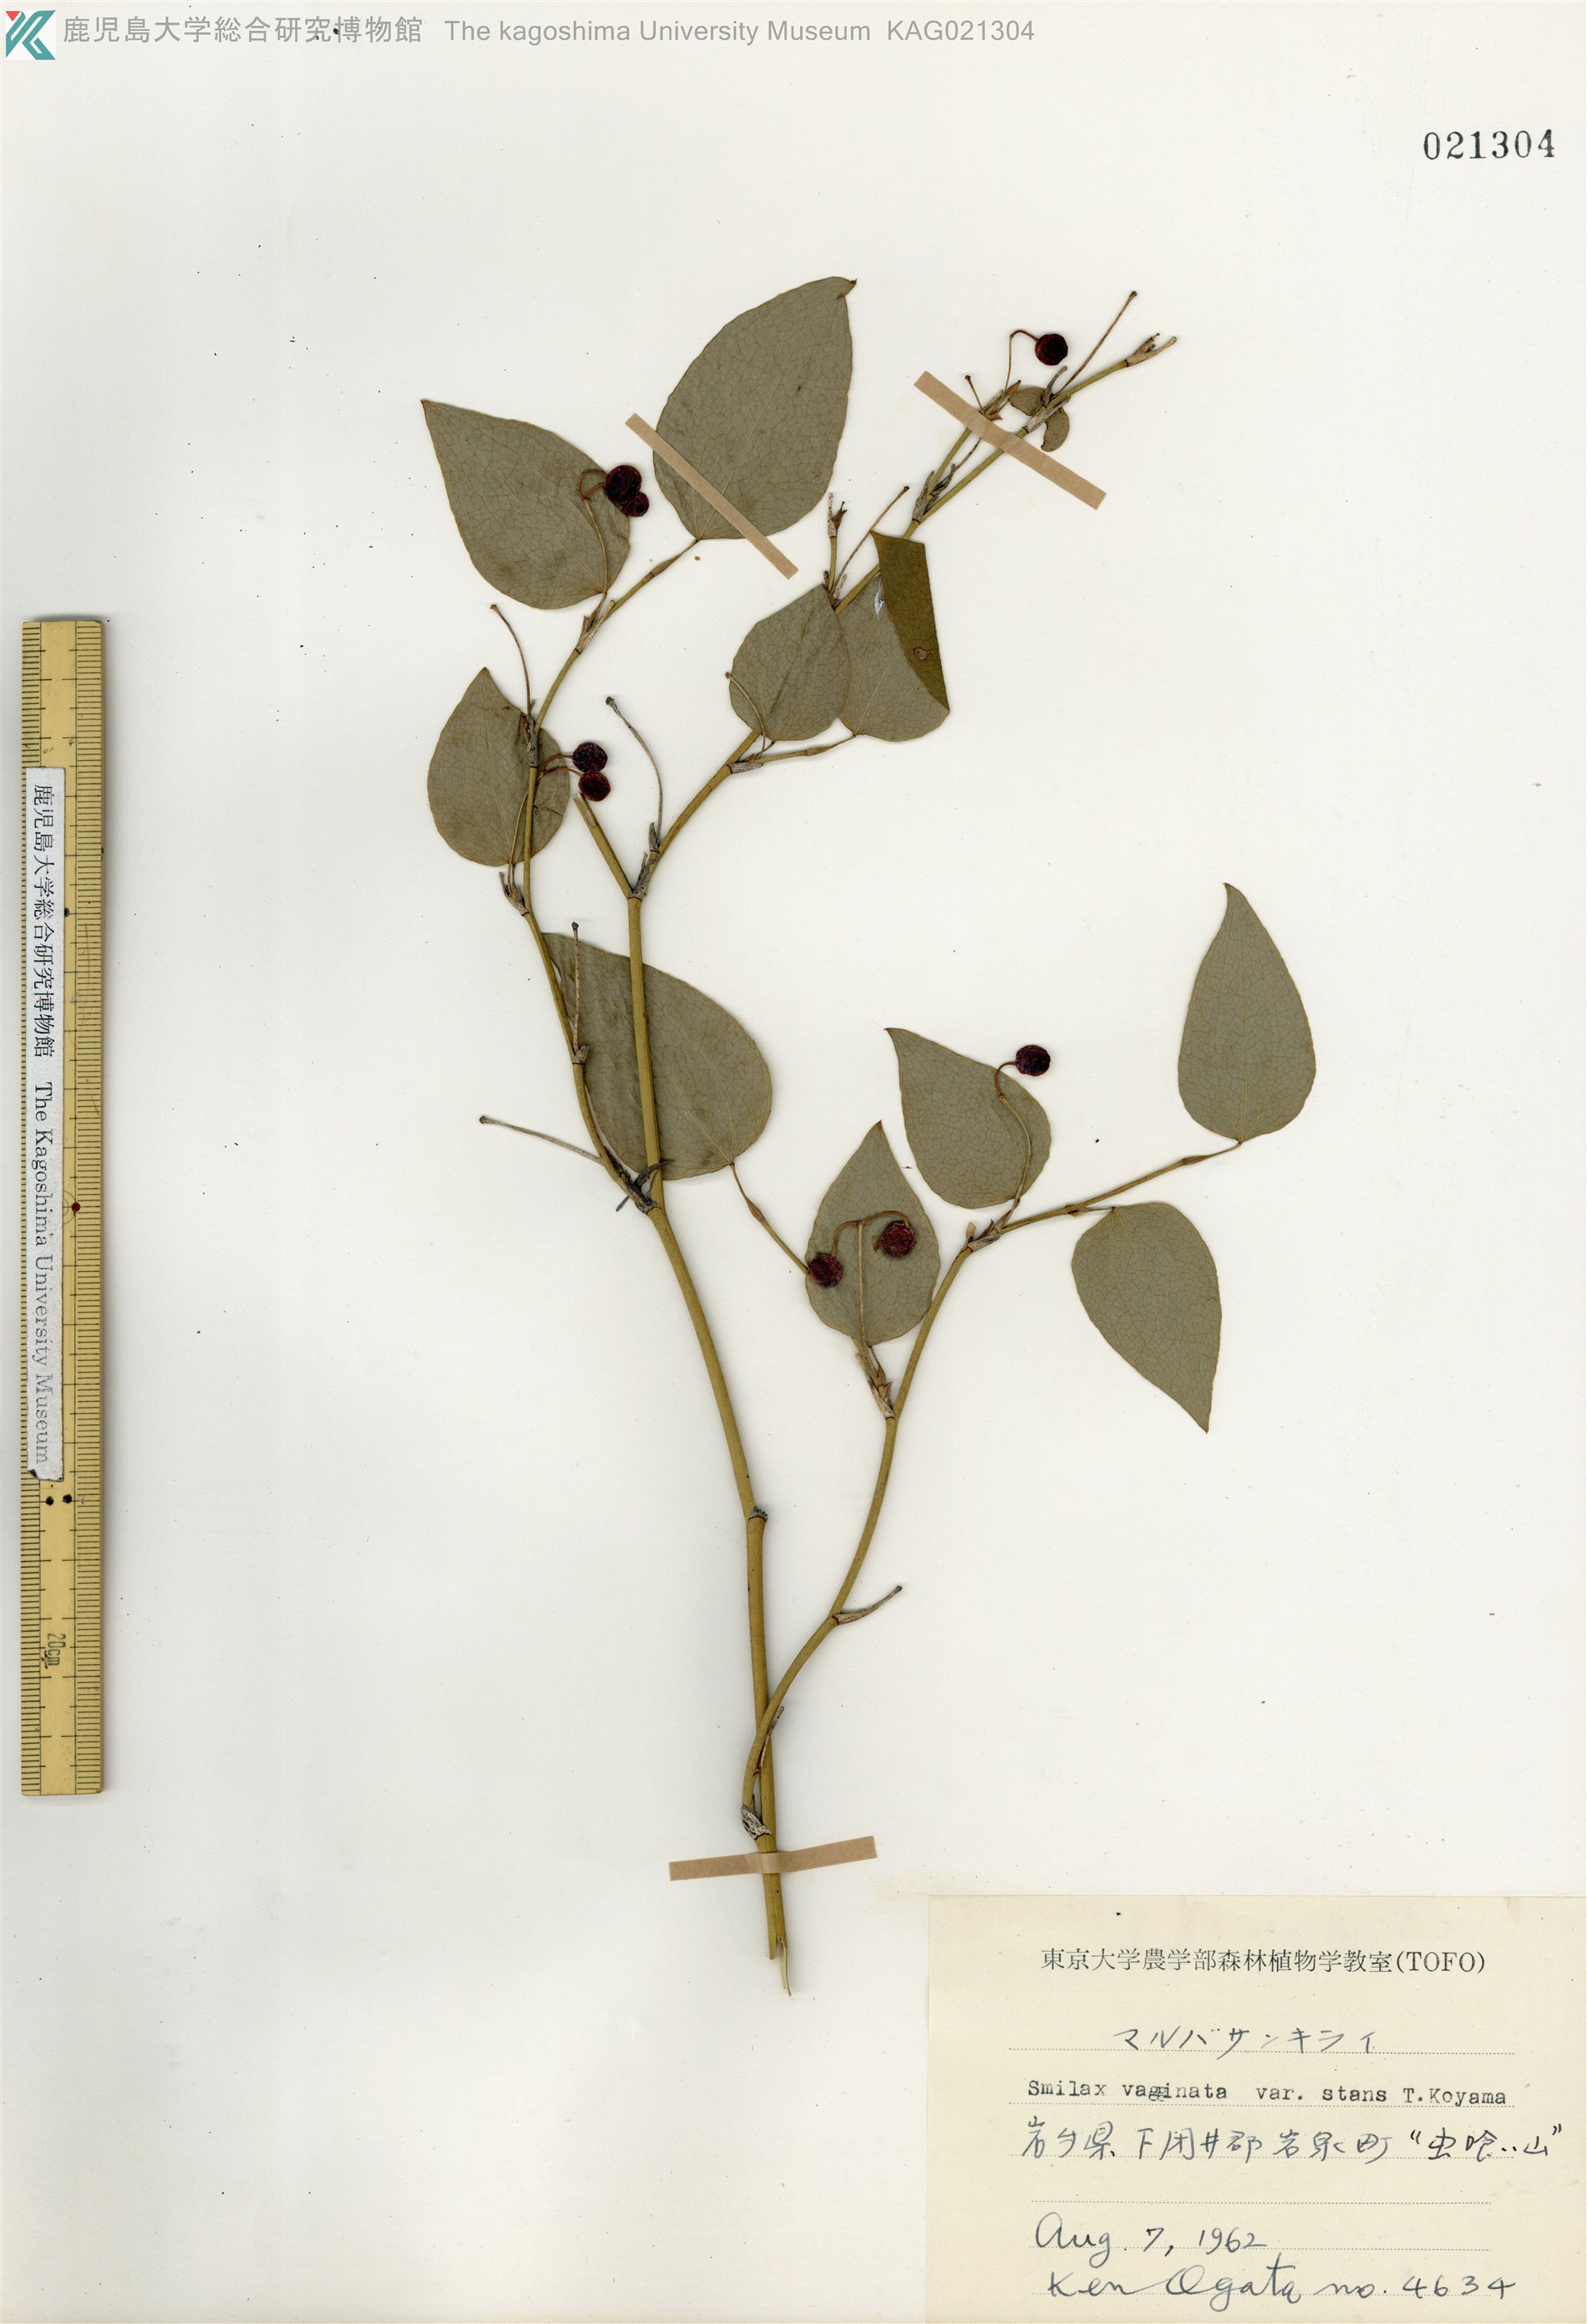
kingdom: Plantae
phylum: Tracheophyta
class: Liliopsida
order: Liliales
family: Smilacaceae
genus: Smilax
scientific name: Smilax stans
